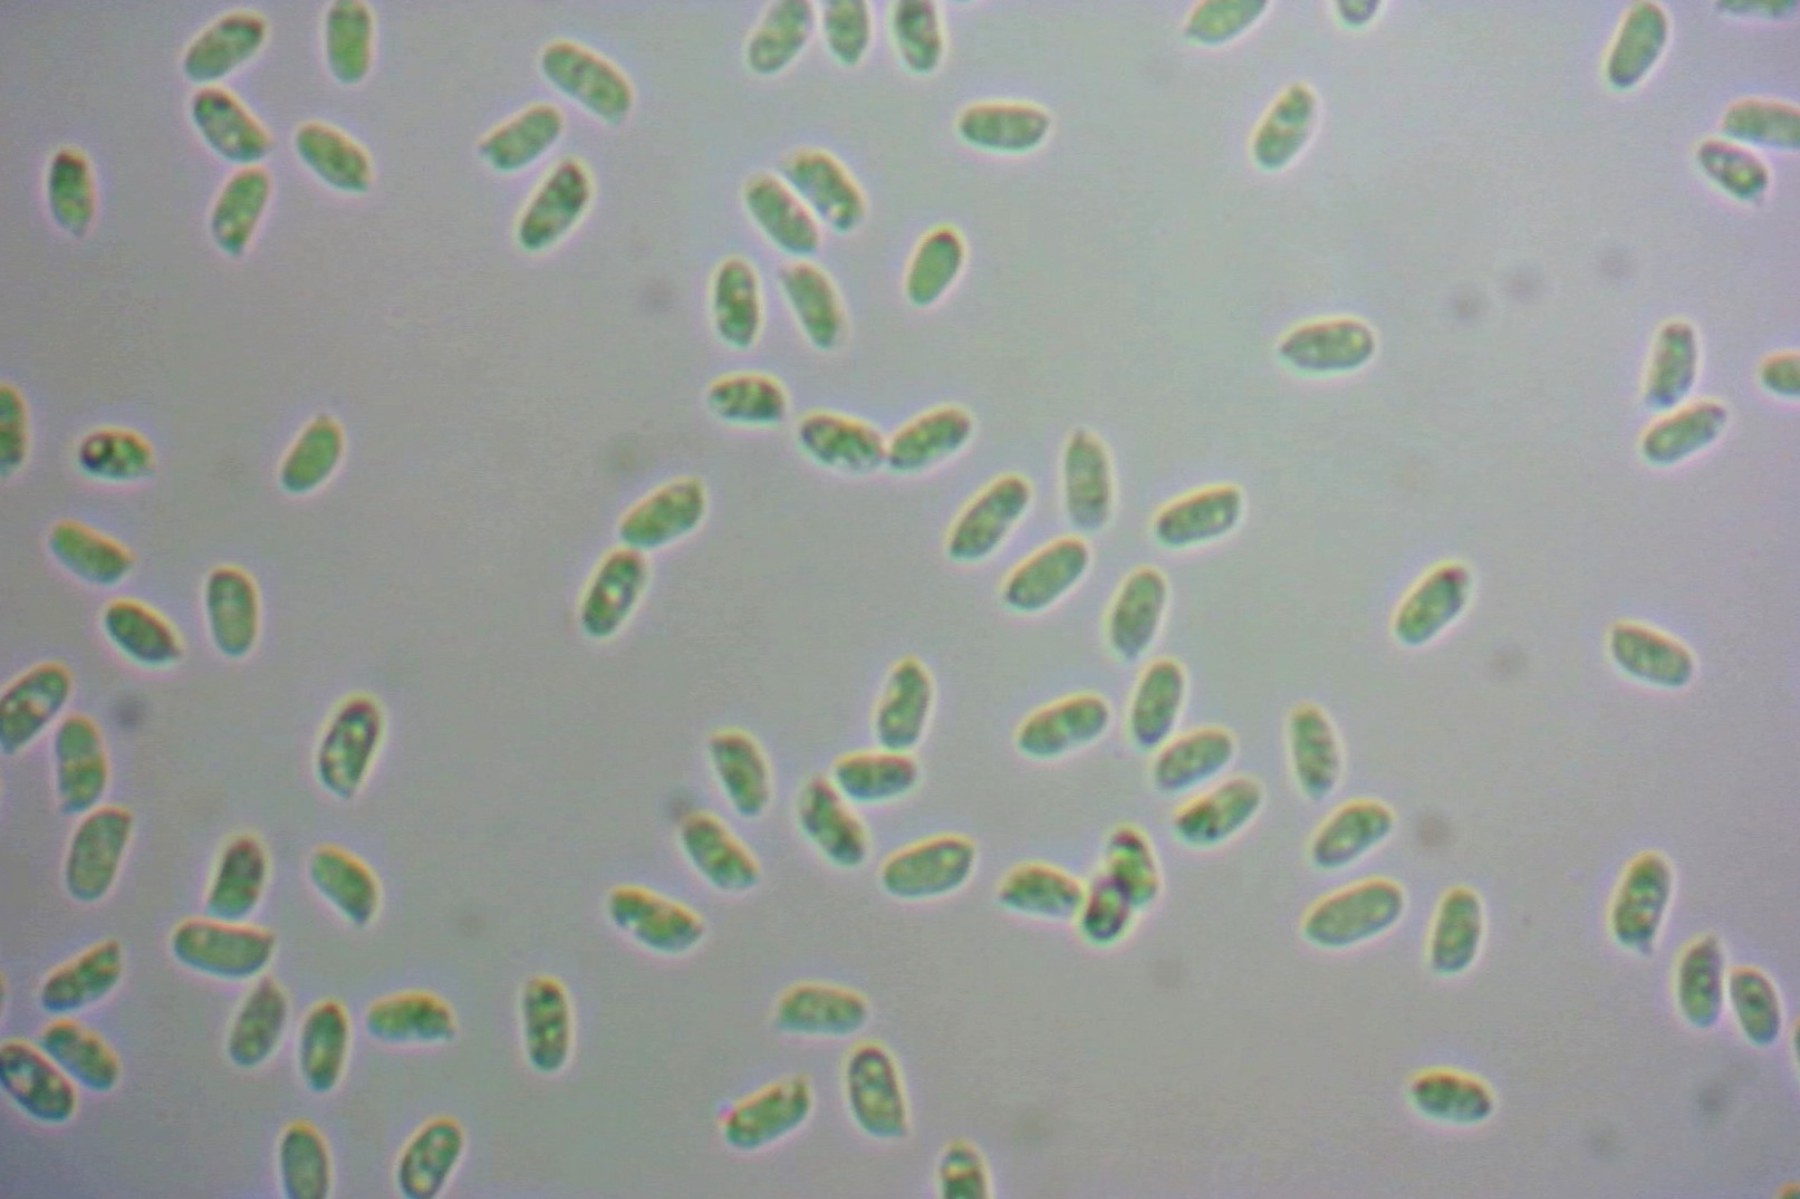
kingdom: Fungi
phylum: Basidiomycota
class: Agaricomycetes
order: Agaricales
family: Cyphellaceae
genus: Chondrostereum
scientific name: Chondrostereum purpureum
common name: purpurlædersvamp
